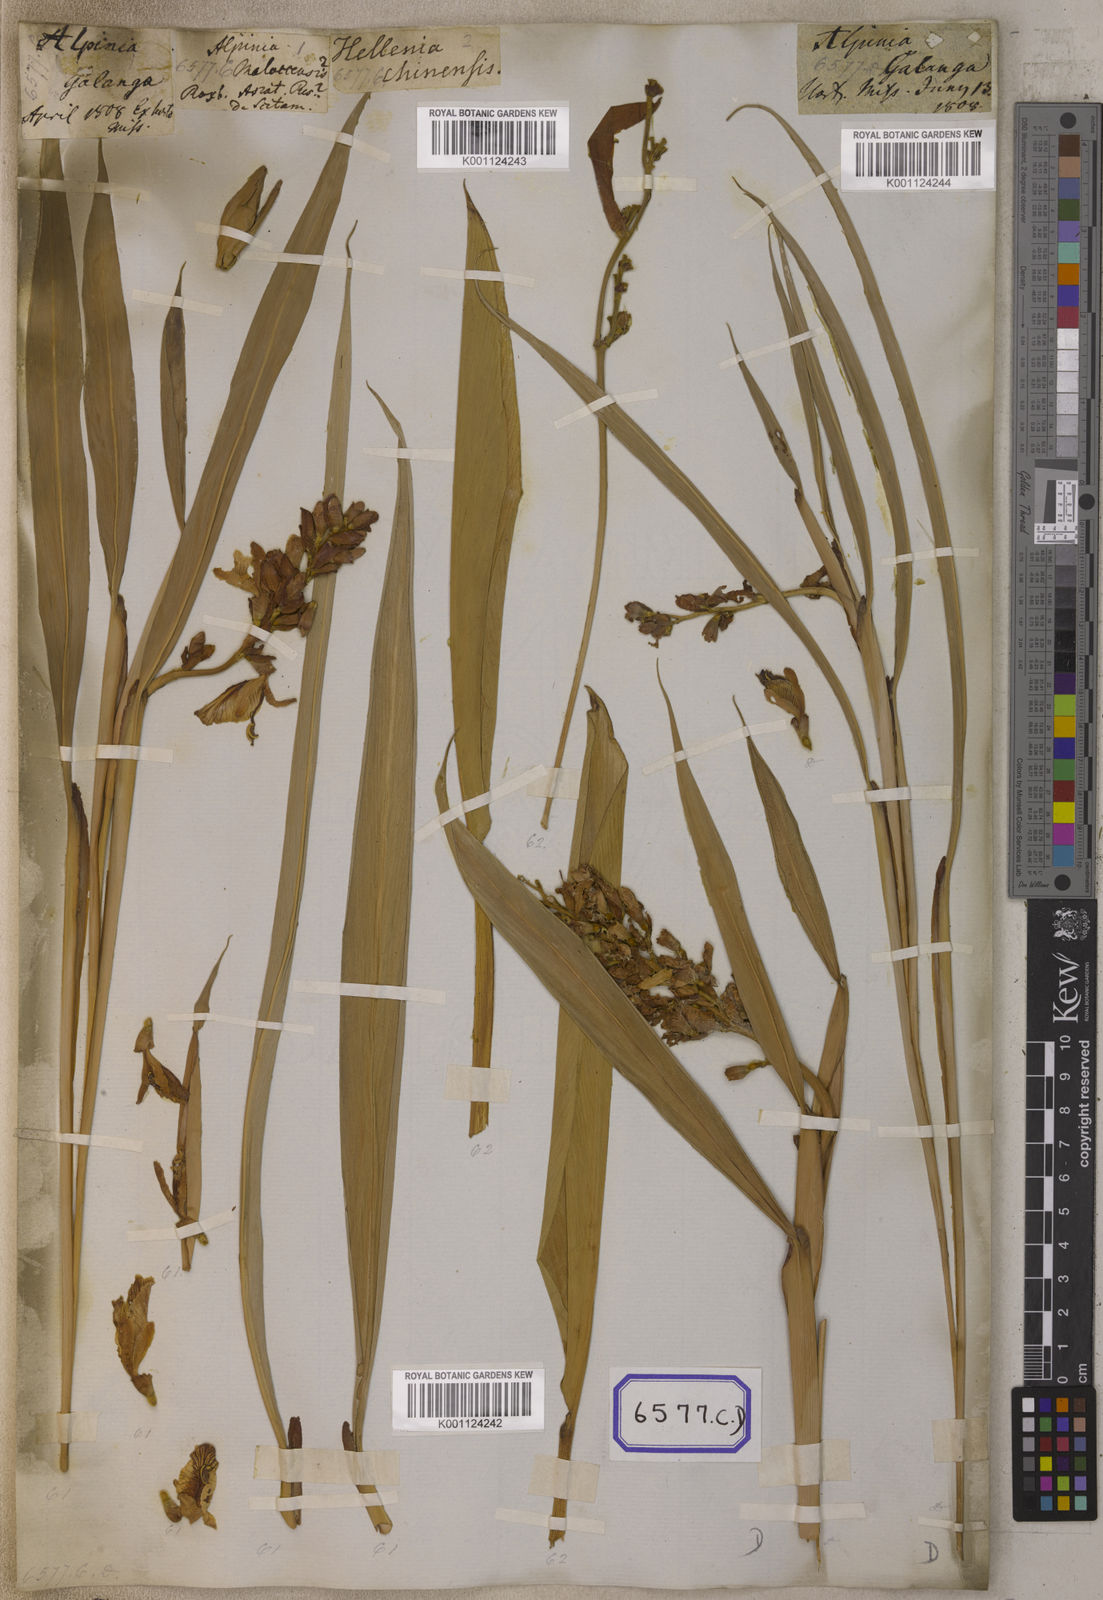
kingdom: Plantae
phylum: Tracheophyta
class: Liliopsida
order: Zingiberales
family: Zingiberaceae
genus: Alpinia
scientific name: Alpinia calcarata
